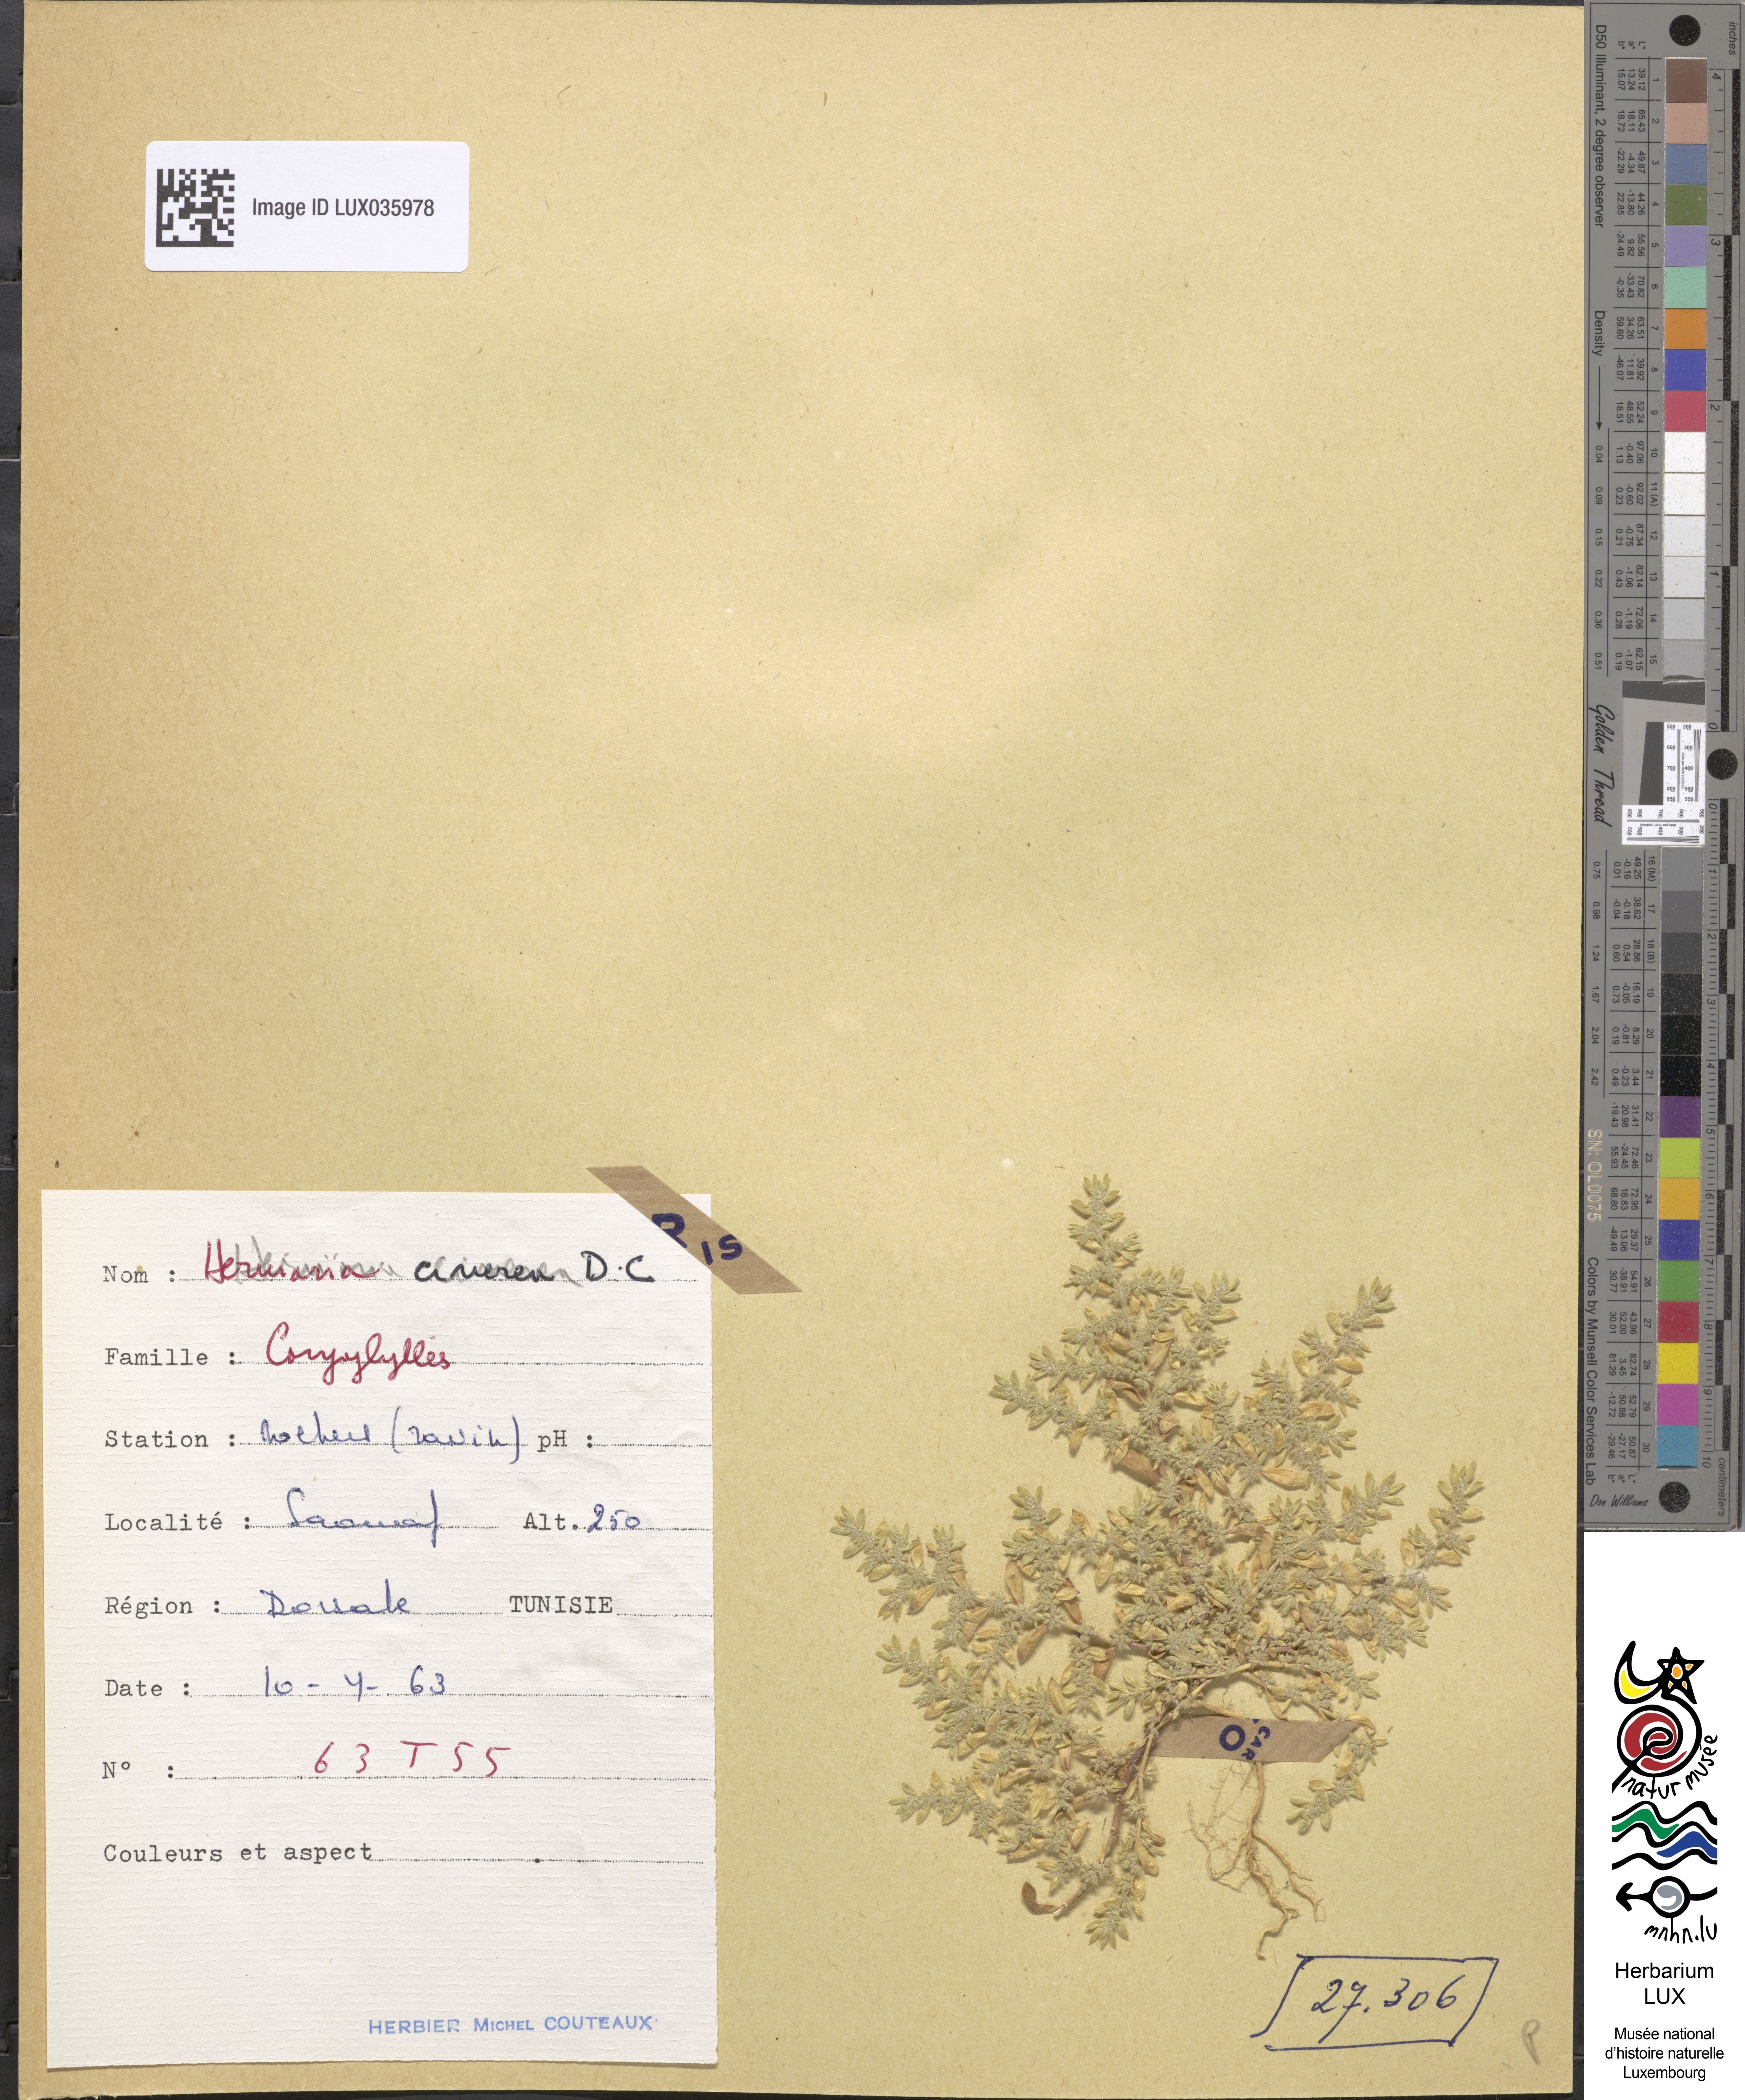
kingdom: Plantae
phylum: Tracheophyta
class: Magnoliopsida
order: Caryophyllales
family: Caryophyllaceae
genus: Herniaria
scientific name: Herniaria cinerea
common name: Hairy rupturewort
